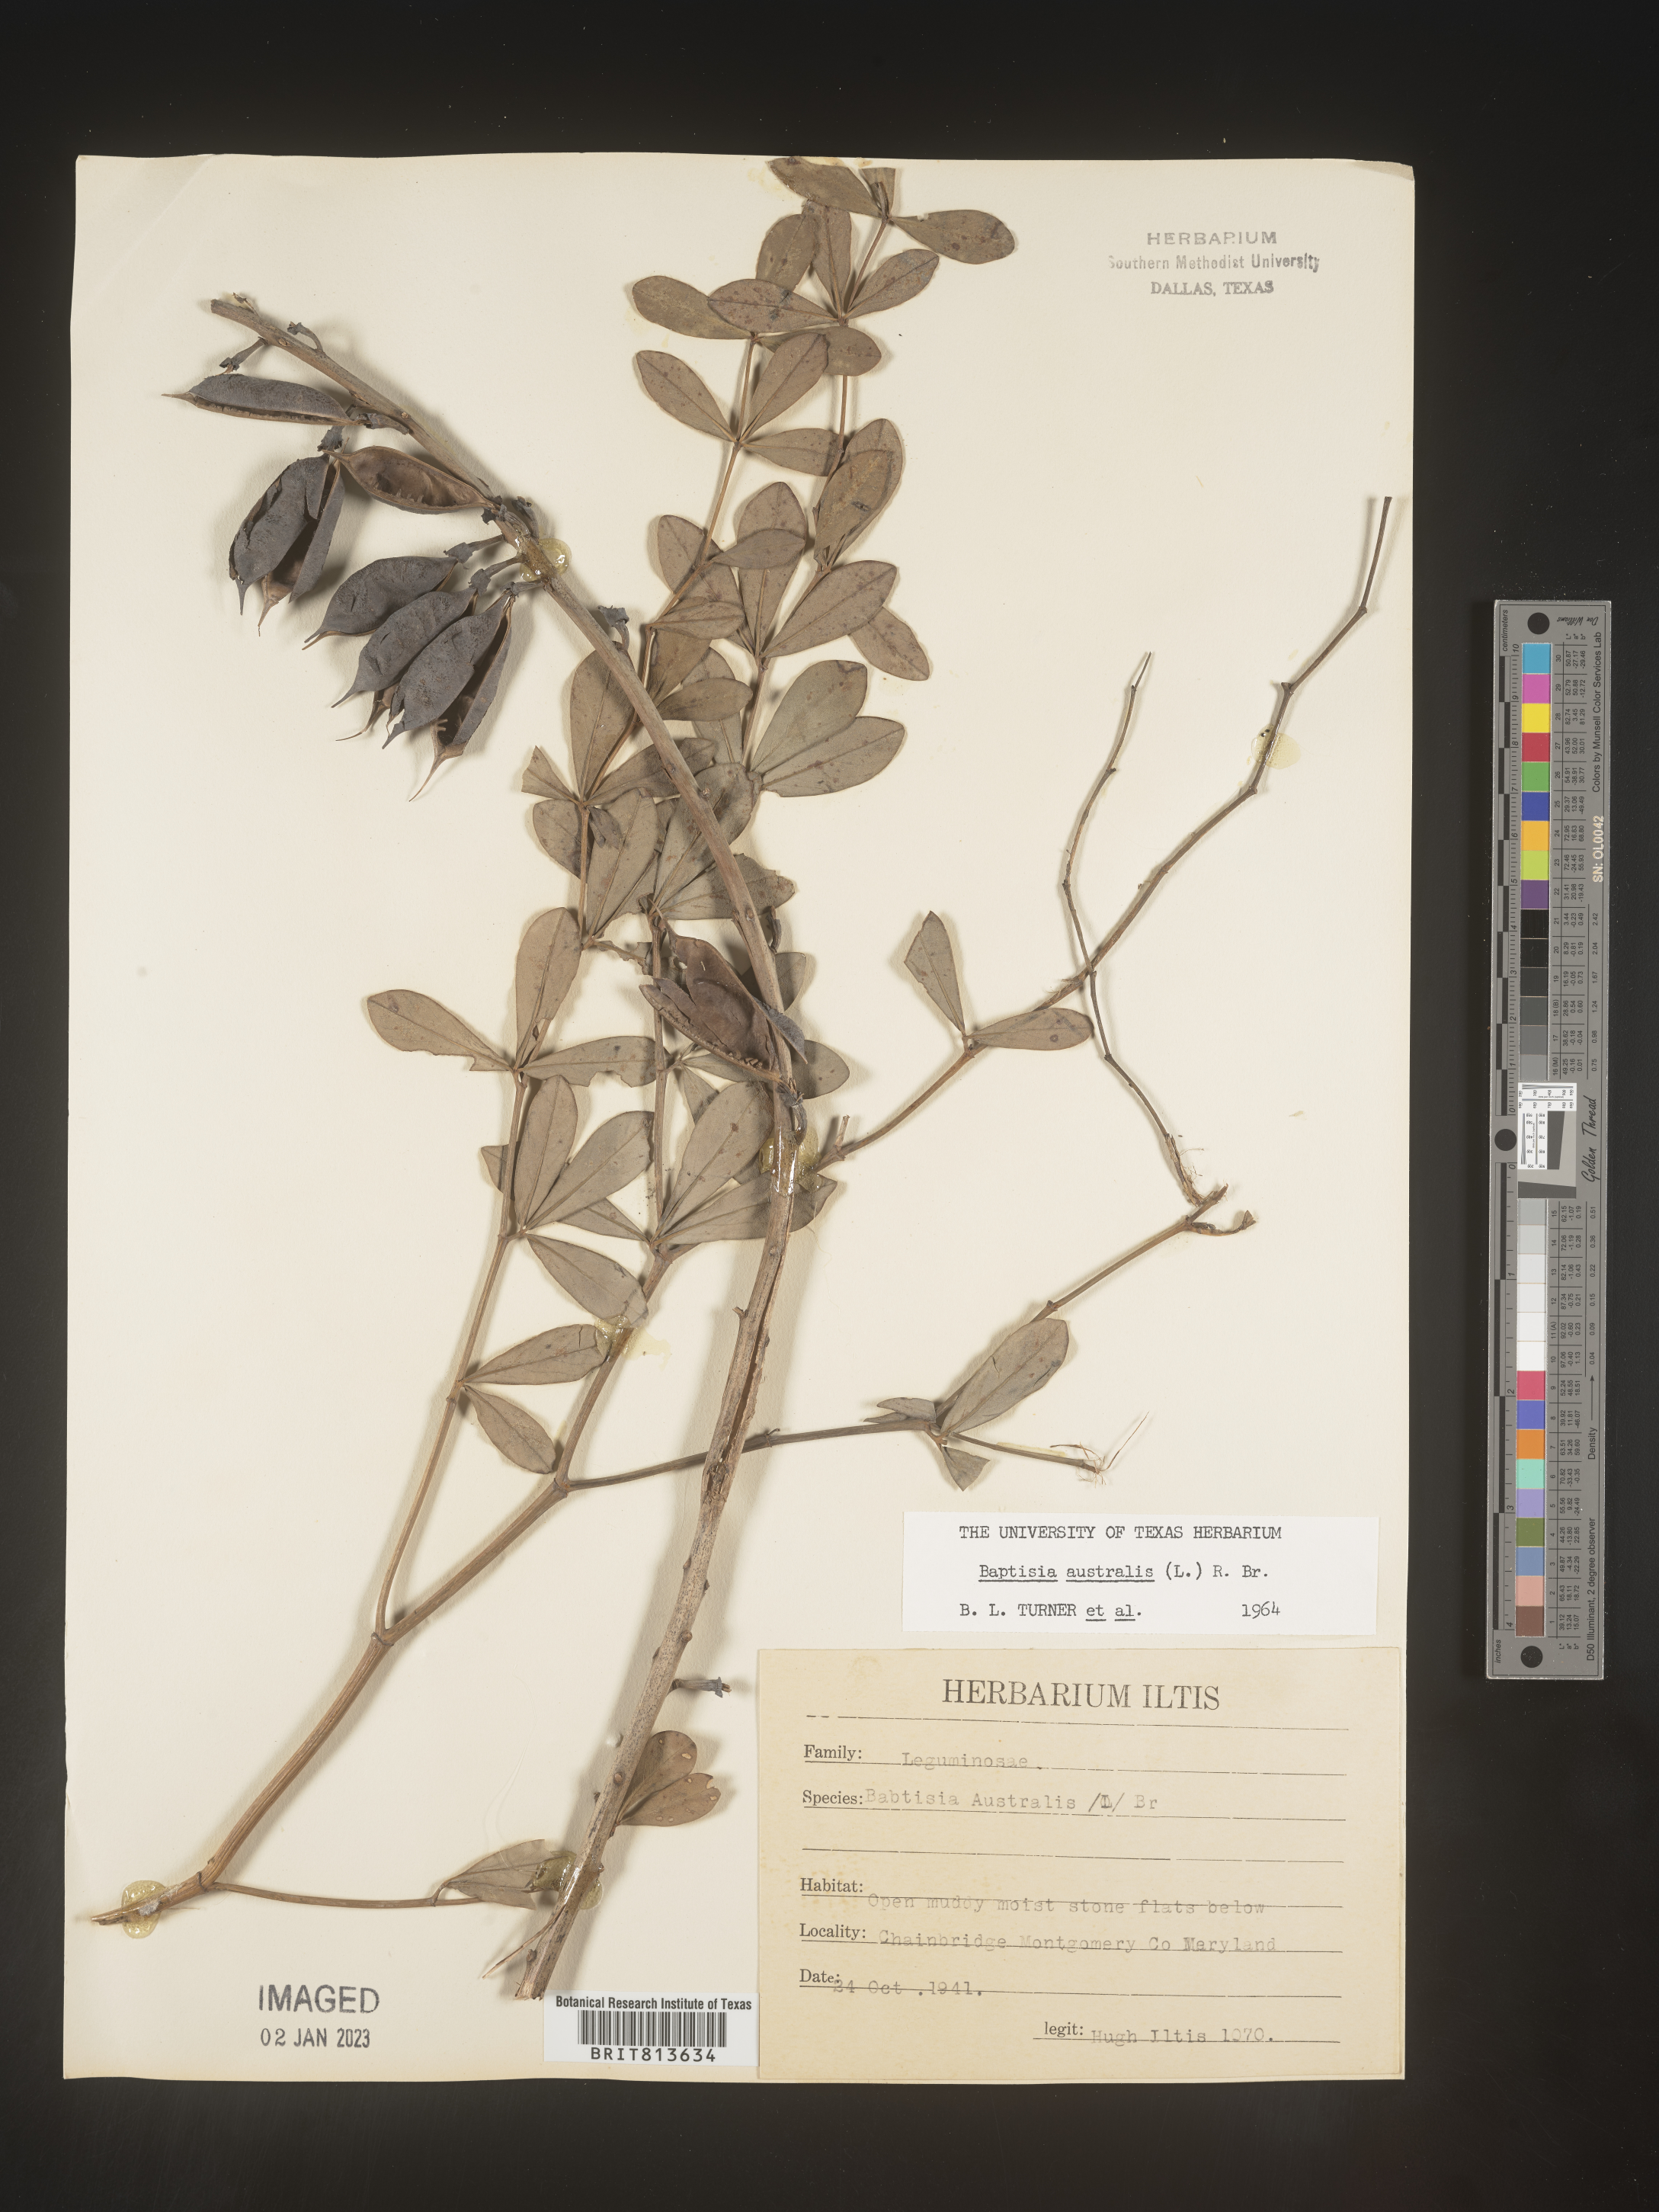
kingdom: Plantae
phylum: Tracheophyta
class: Magnoliopsida
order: Fabales
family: Fabaceae
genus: Baptisia
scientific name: Baptisia australis
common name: Blue false indigo
